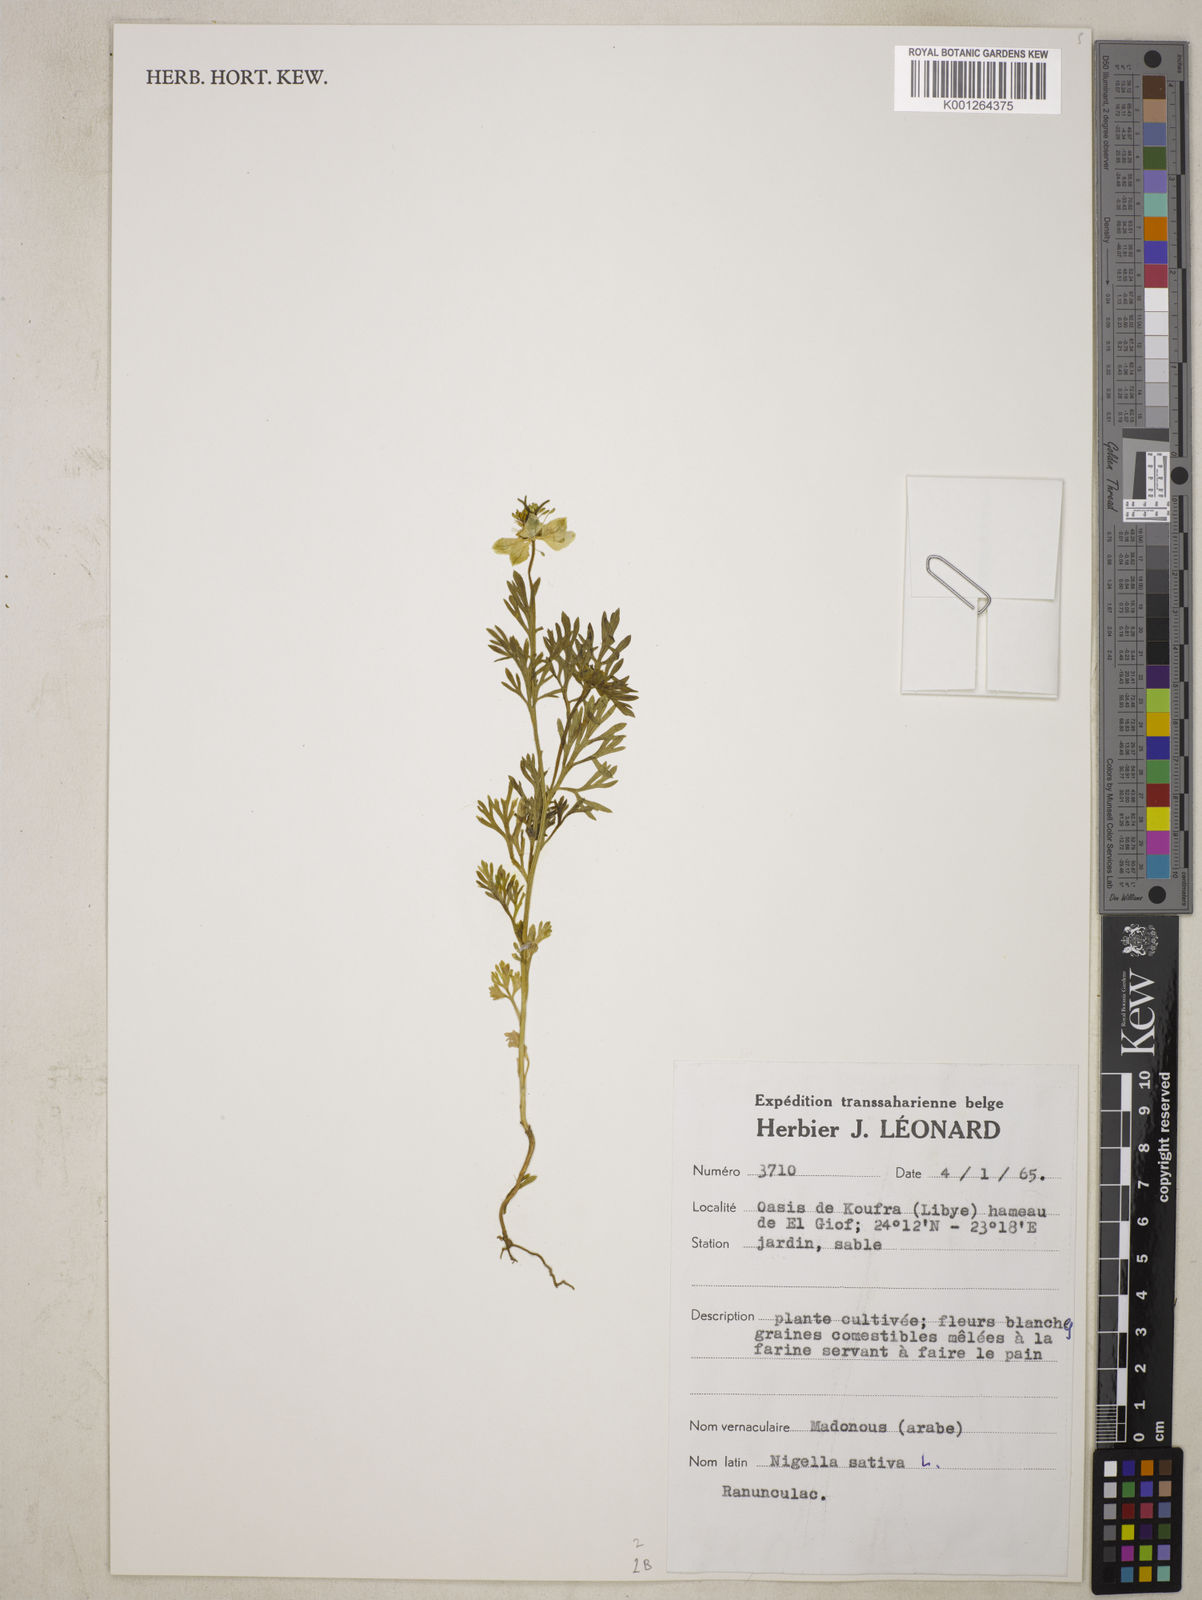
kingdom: Plantae
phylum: Tracheophyta
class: Magnoliopsida
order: Ranunculales
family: Ranunculaceae
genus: Nigella
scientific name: Nigella hispanica
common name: Fennel-flower
